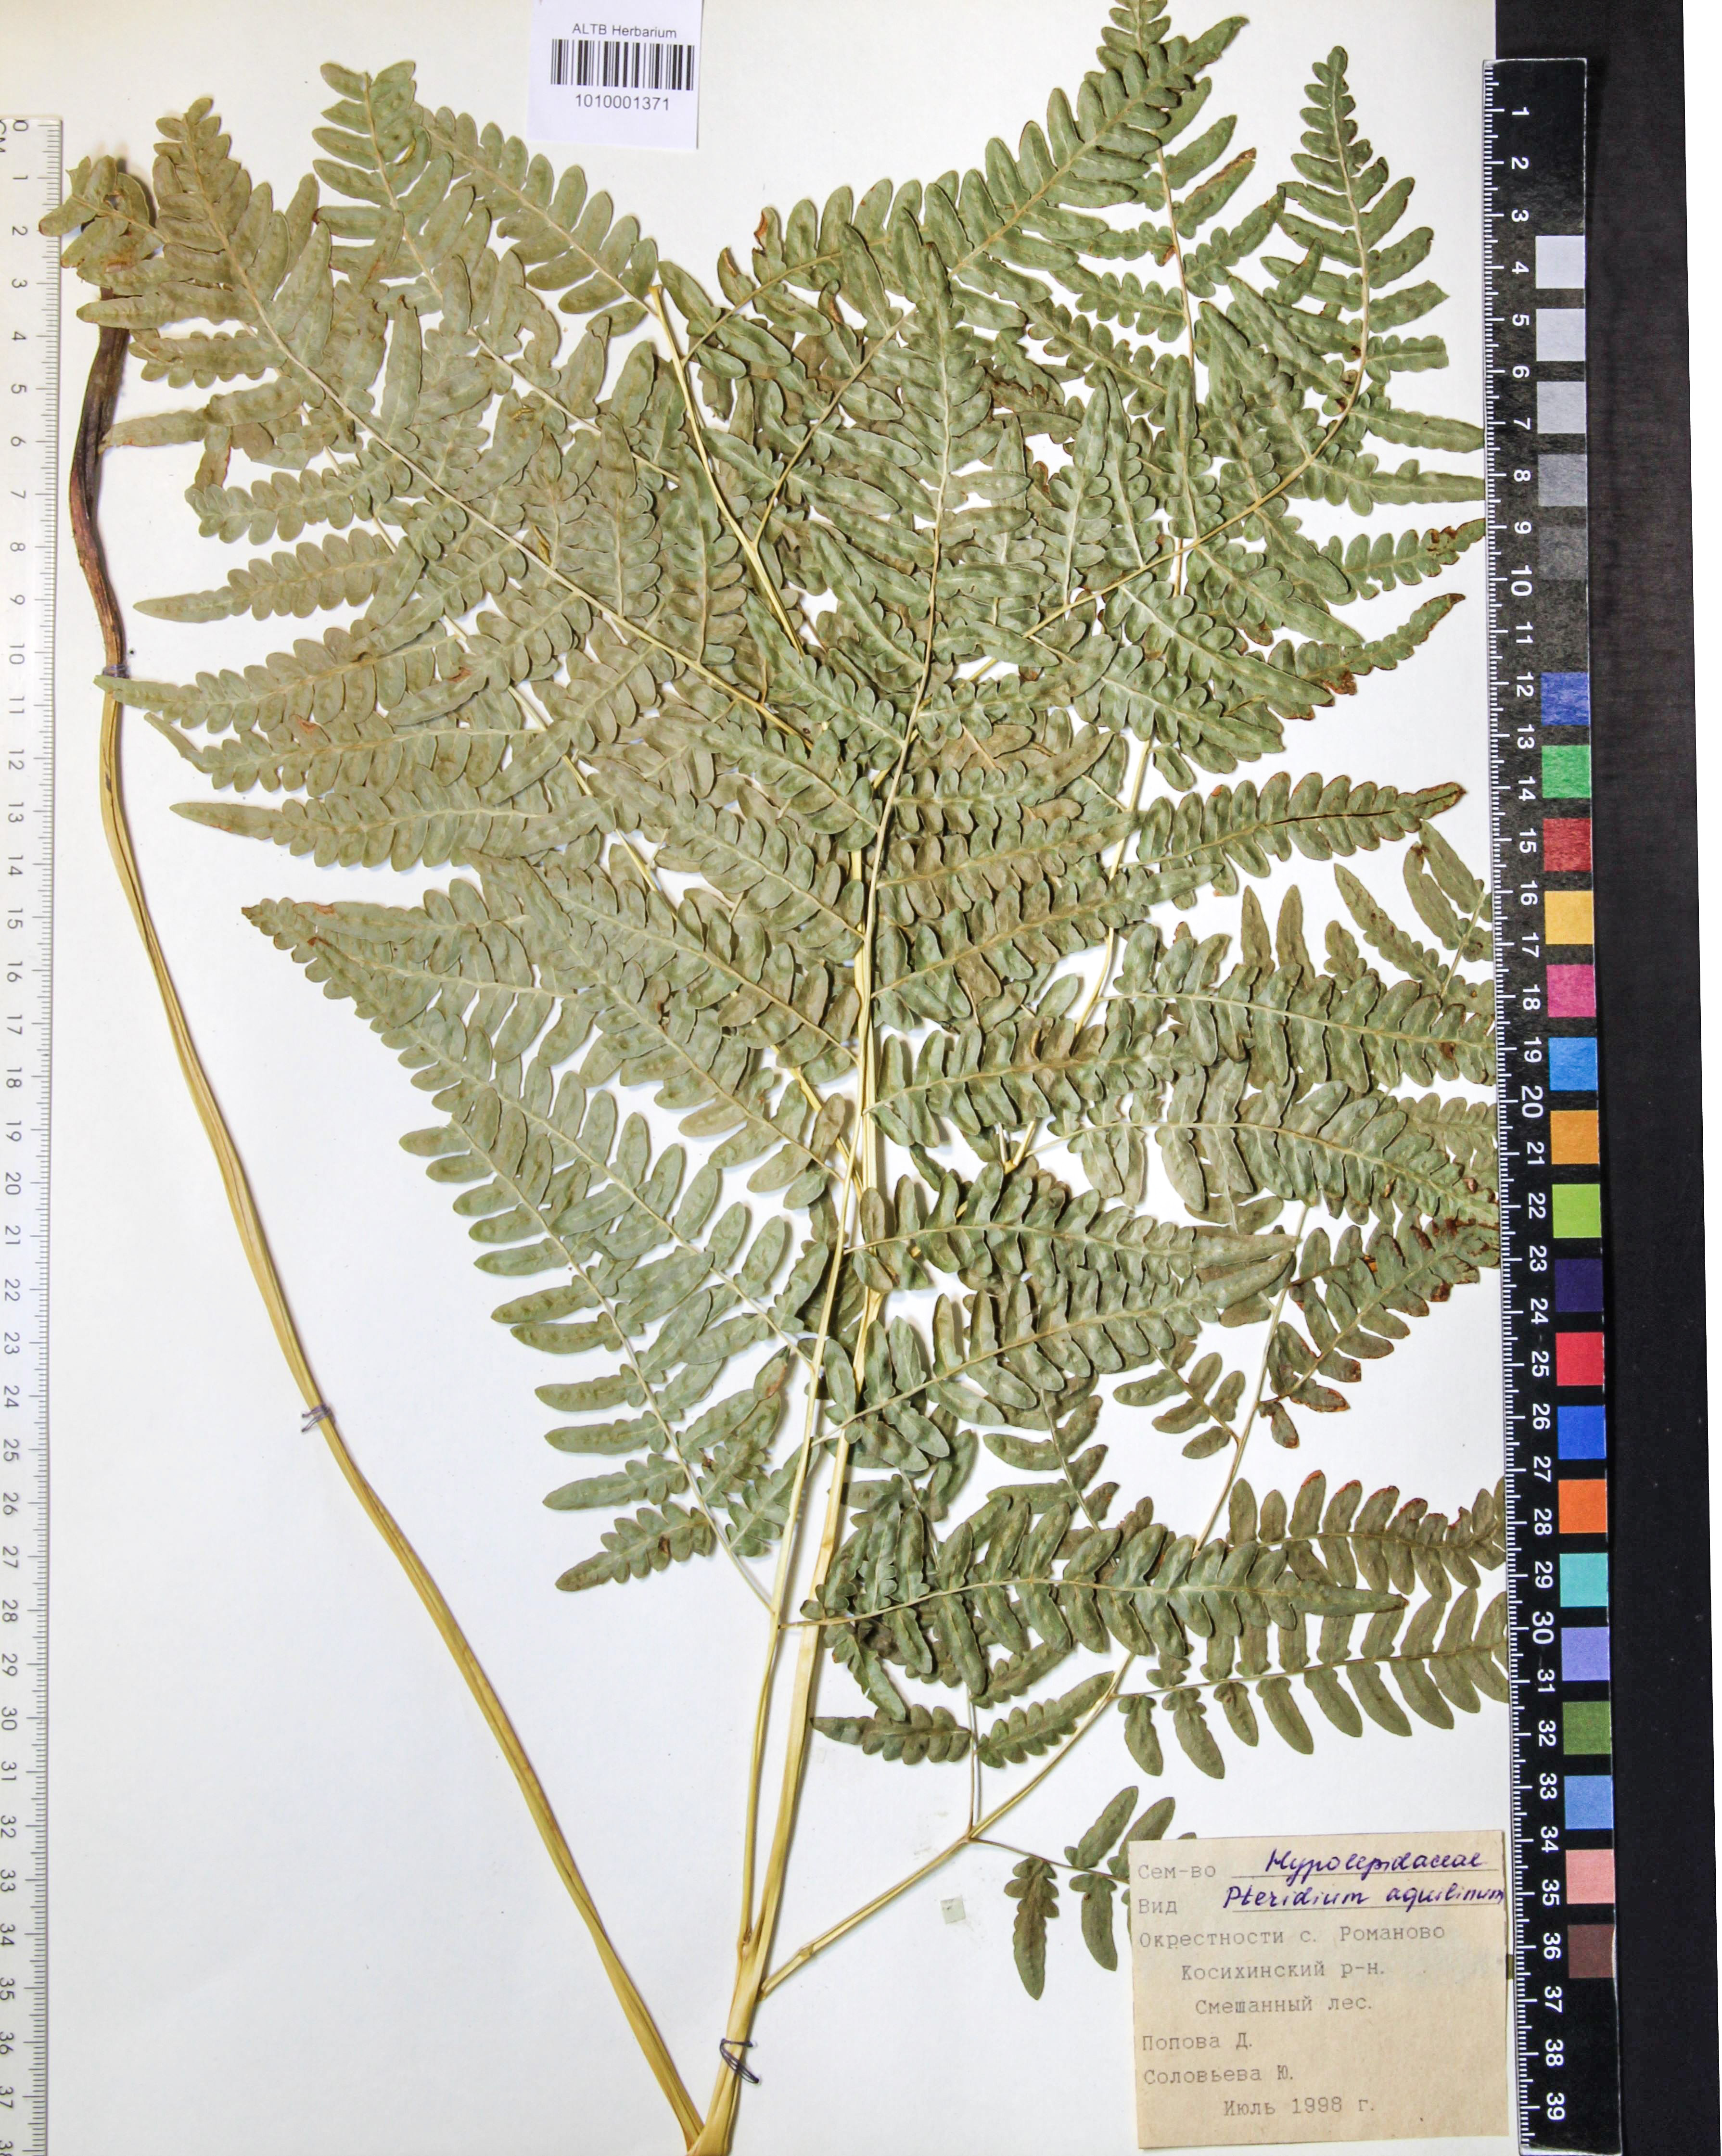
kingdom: Plantae
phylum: Tracheophyta
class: Polypodiopsida
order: Polypodiales
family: Dennstaedtiaceae
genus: Pteridium
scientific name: Pteridium aquilinum
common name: Bracken
